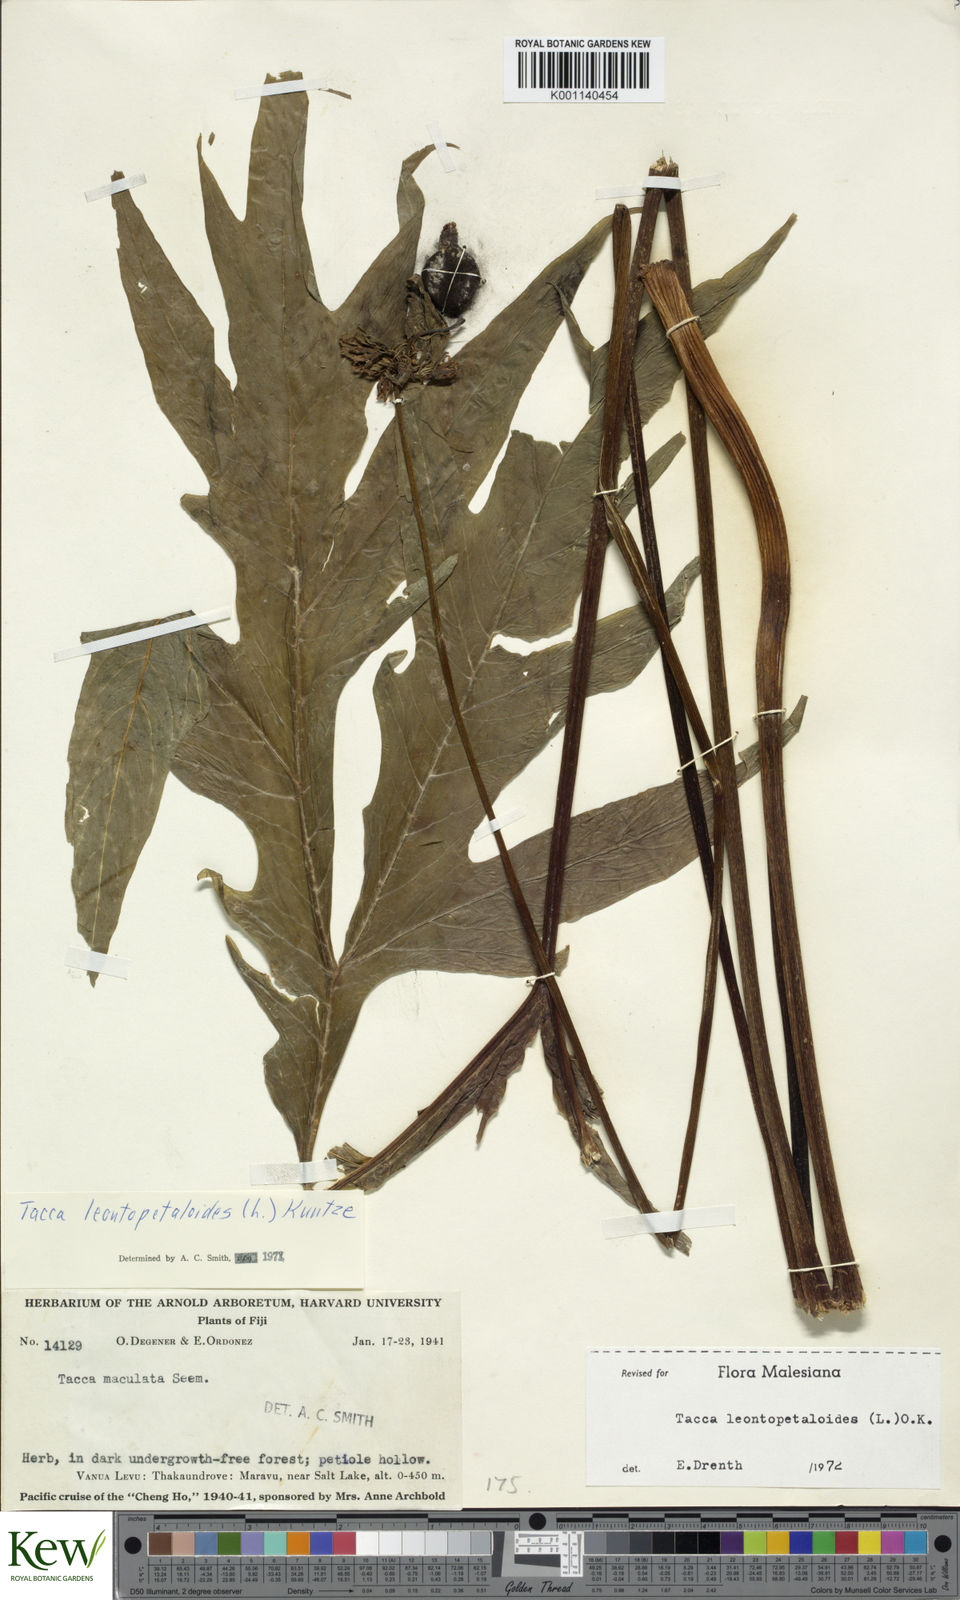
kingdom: Plantae
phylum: Tracheophyta
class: Liliopsida
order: Dioscoreales
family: Dioscoreaceae
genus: Tacca
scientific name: Tacca leontopetaloides
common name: Arrowroot
